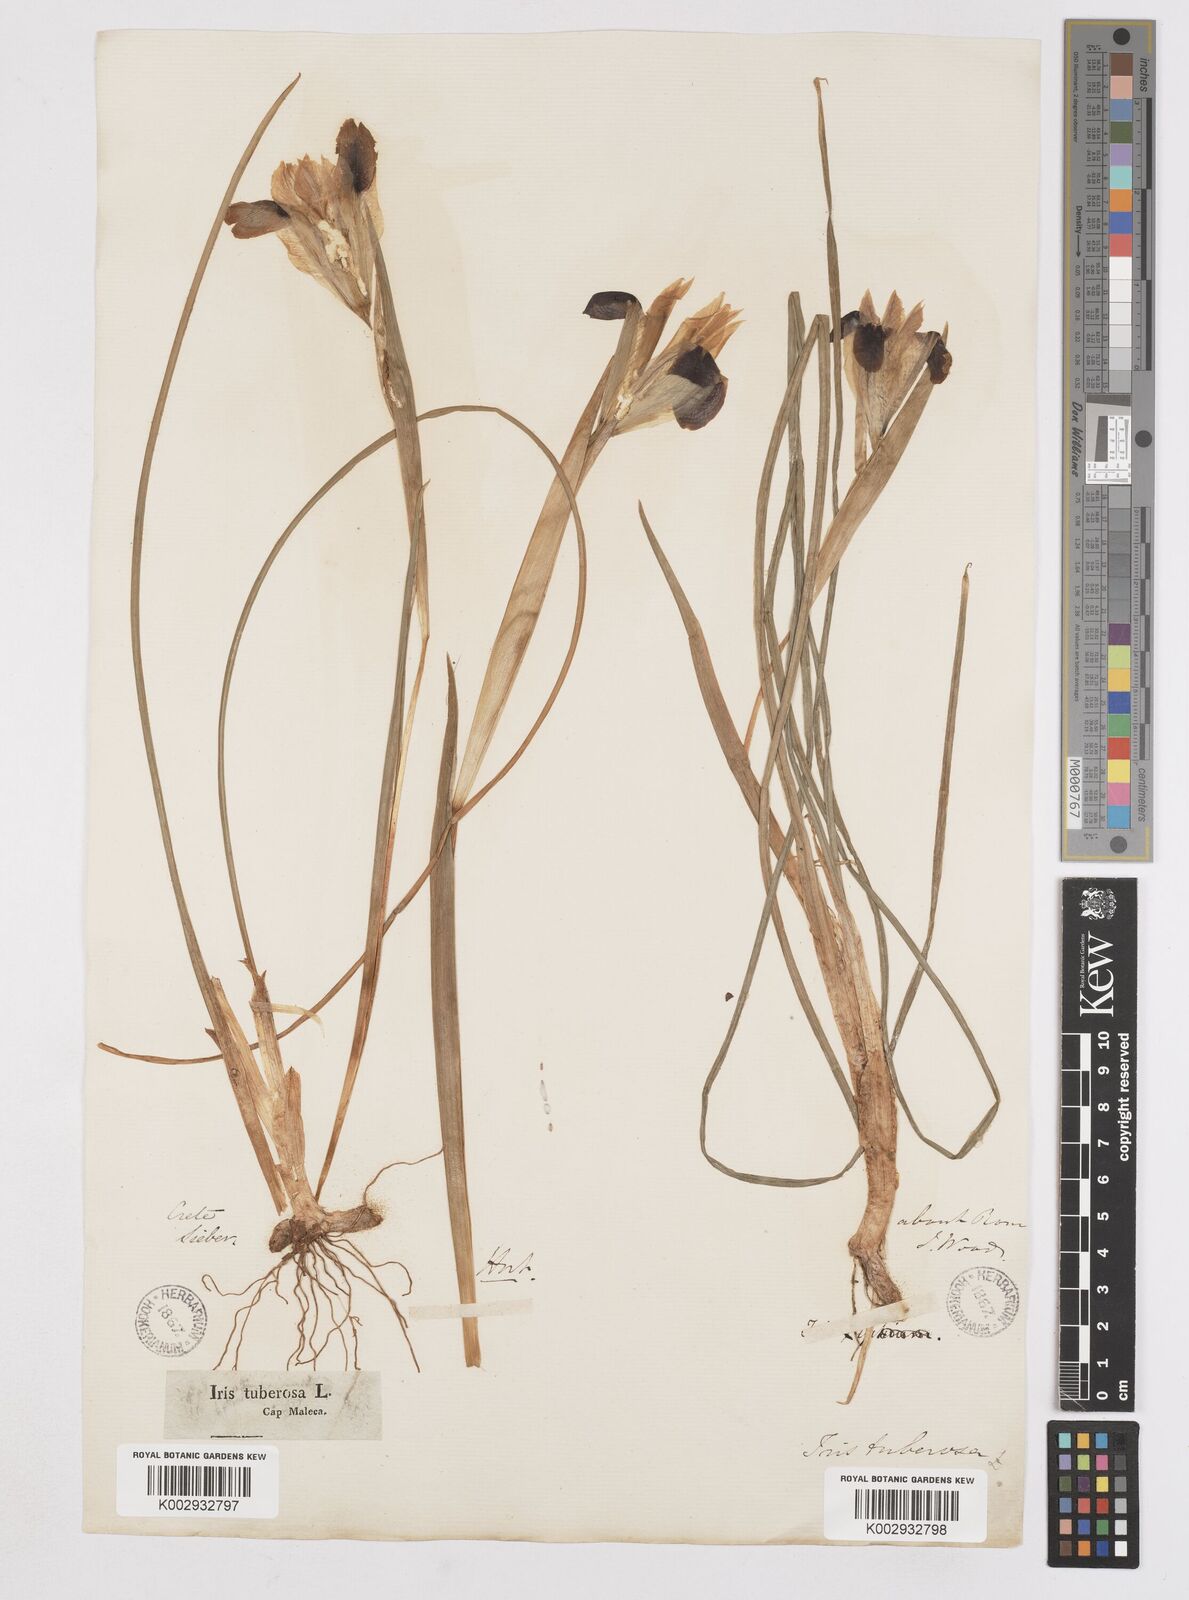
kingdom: Plantae
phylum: Tracheophyta
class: Liliopsida
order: Asparagales
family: Iridaceae
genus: Iris
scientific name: Iris tuberosa
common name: Snake's-head iris
